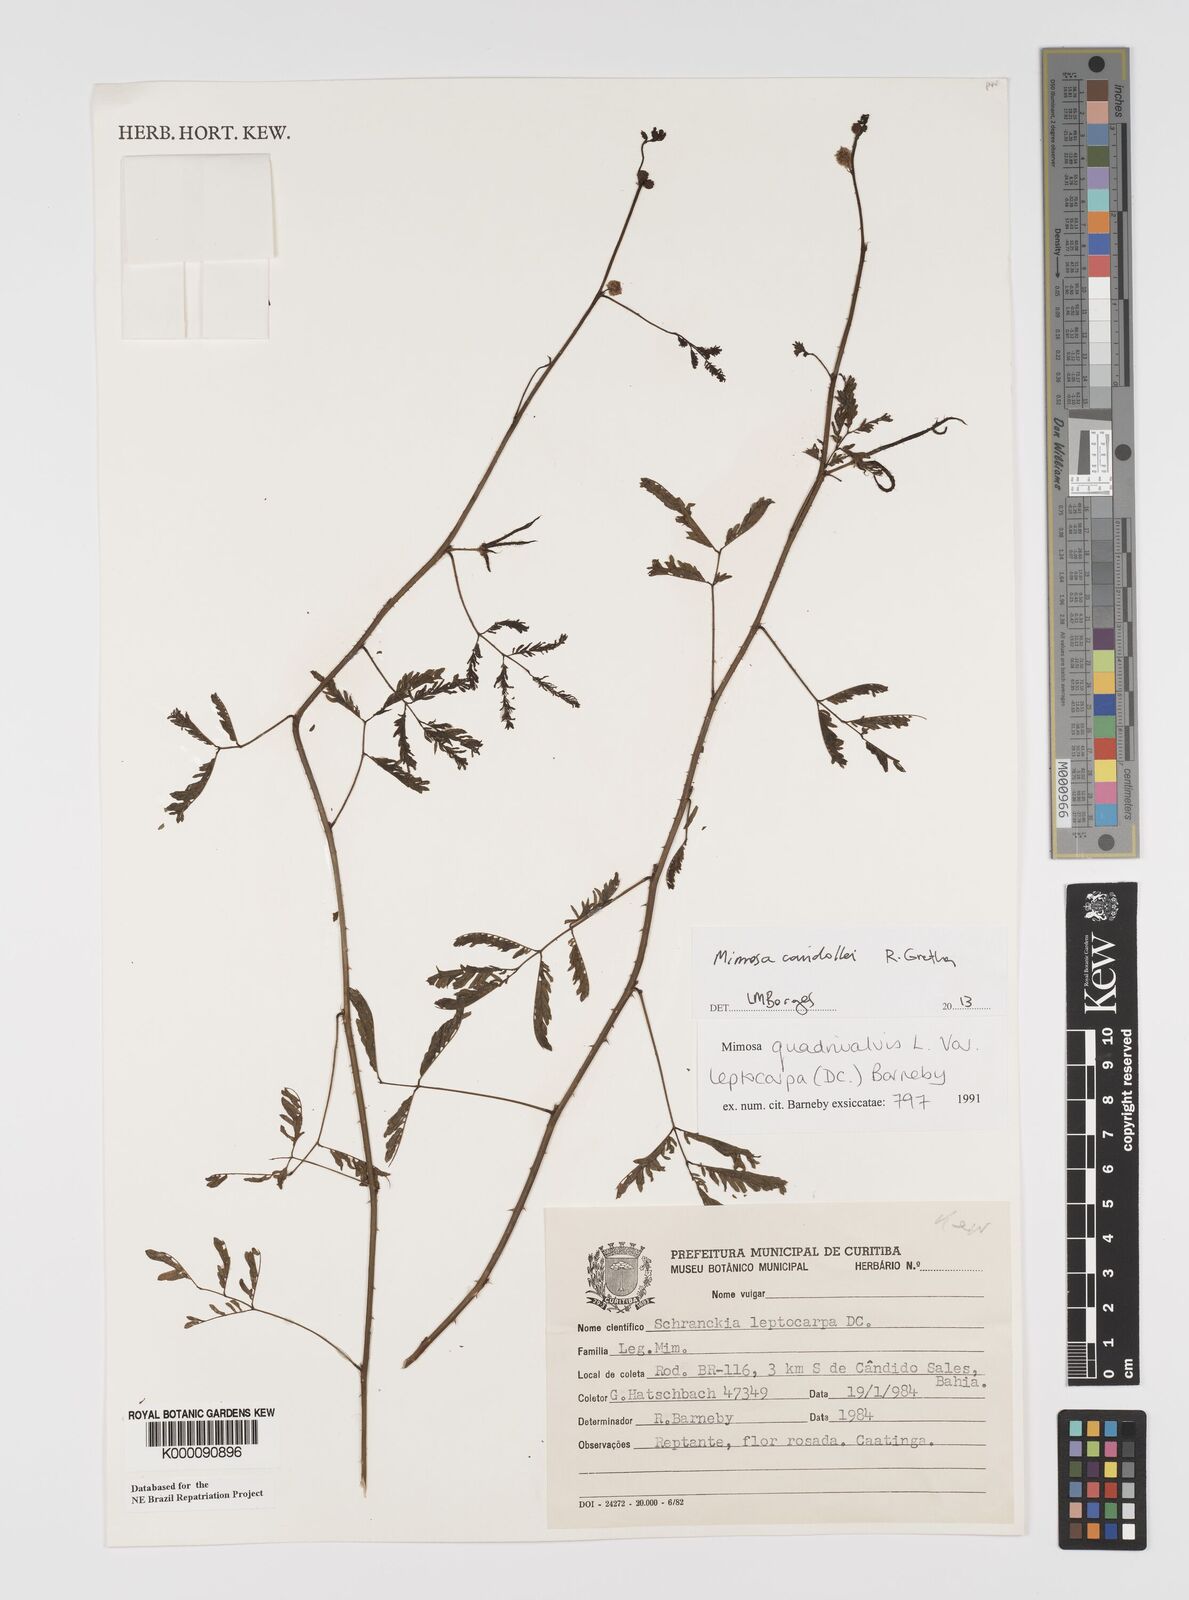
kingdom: Plantae
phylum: Tracheophyta
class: Magnoliopsida
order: Fabales
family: Fabaceae
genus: Mimosa
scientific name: Mimosa candollei
